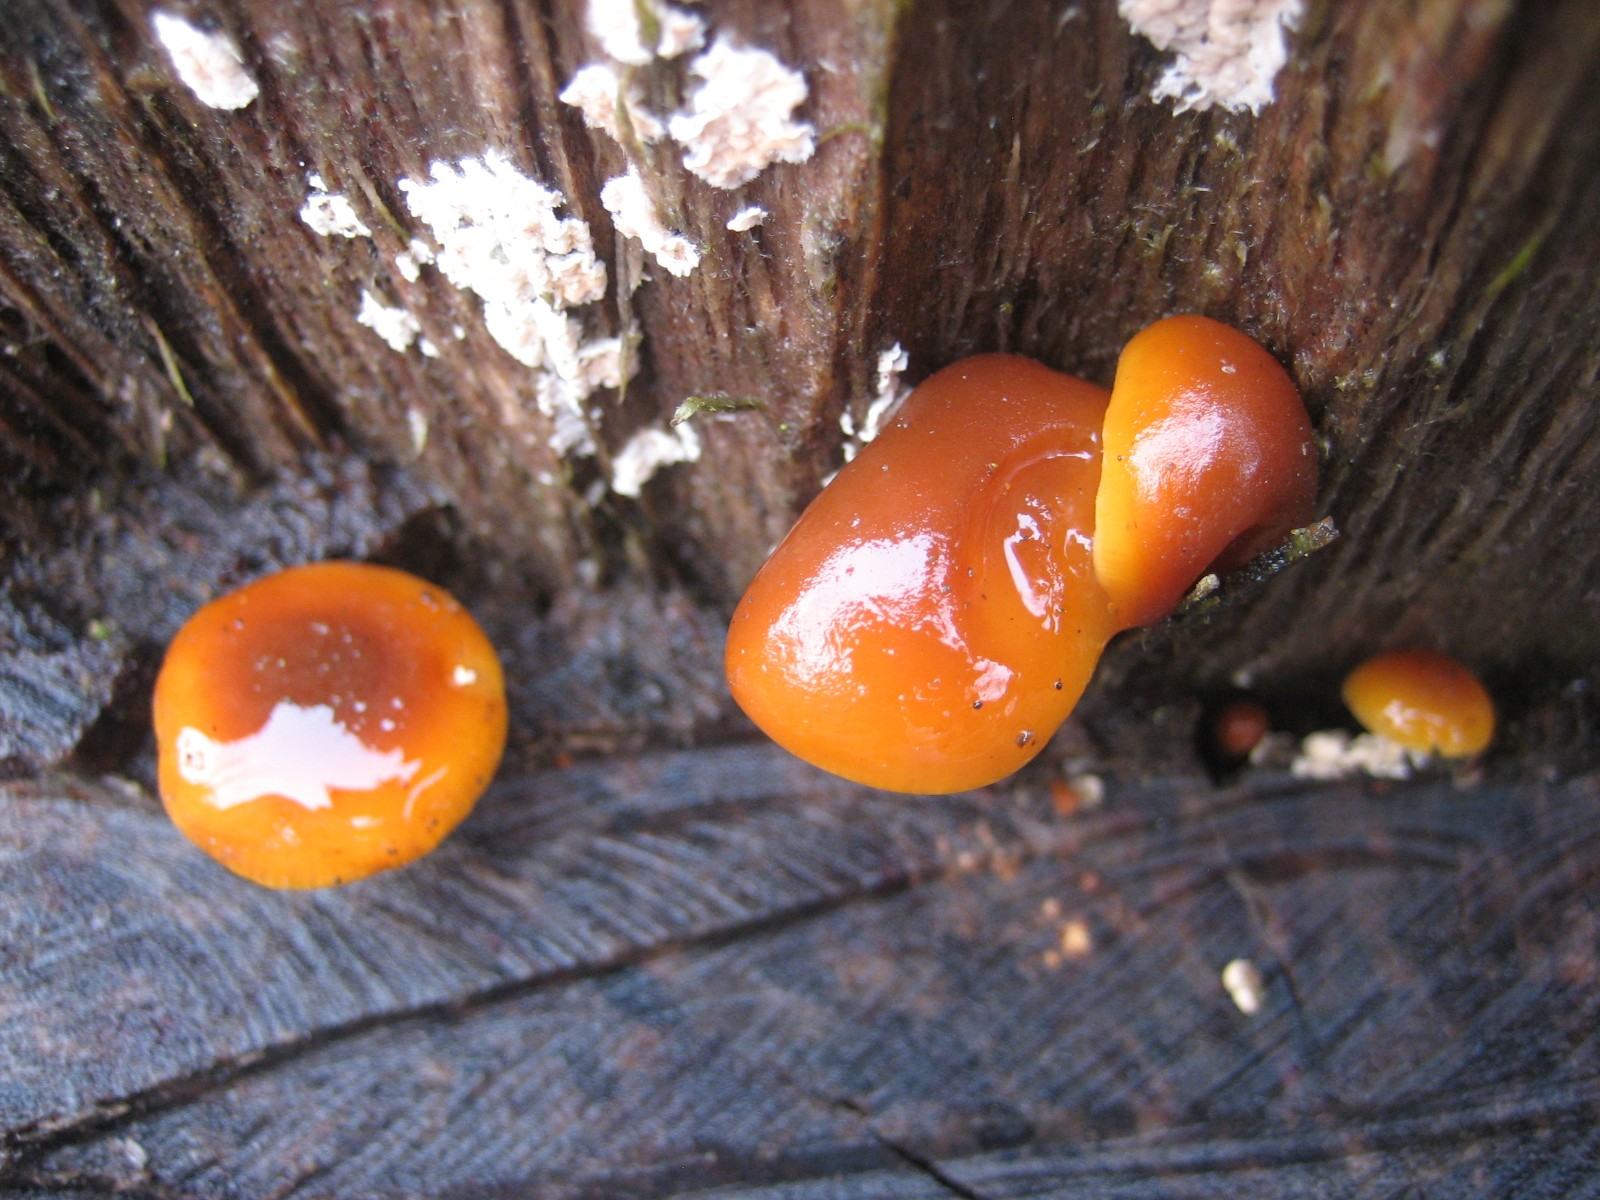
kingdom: Fungi
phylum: Basidiomycota
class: Agaricomycetes
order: Agaricales
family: Physalacriaceae
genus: Flammulina
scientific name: Flammulina velutipes
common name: gul fløjlsfod
